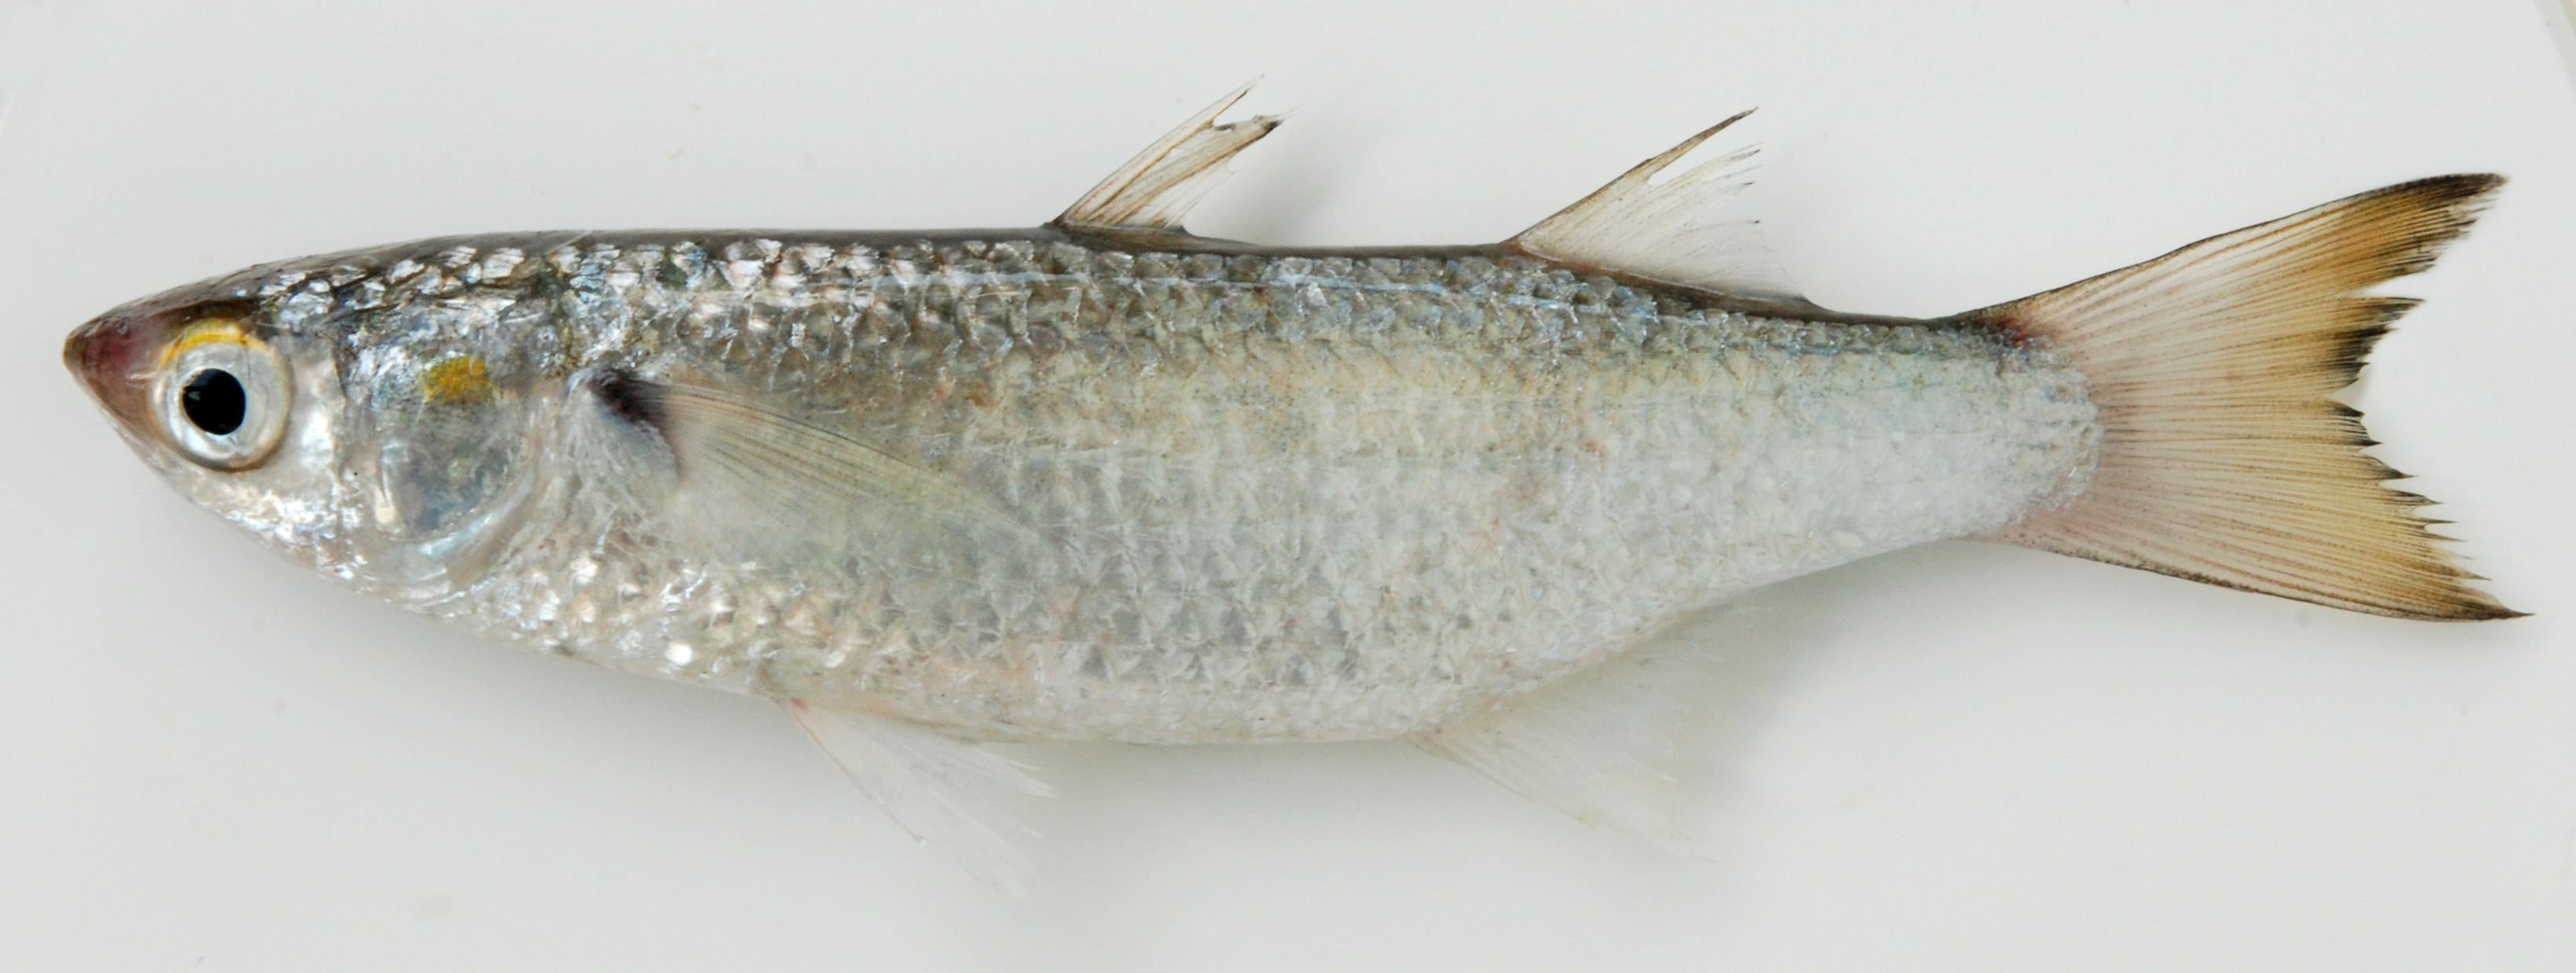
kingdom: Animalia
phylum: Chordata
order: Mugiliformes
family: Mugilidae
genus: Osteomugil
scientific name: Osteomugil cunnesius
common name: Longarm mullet
